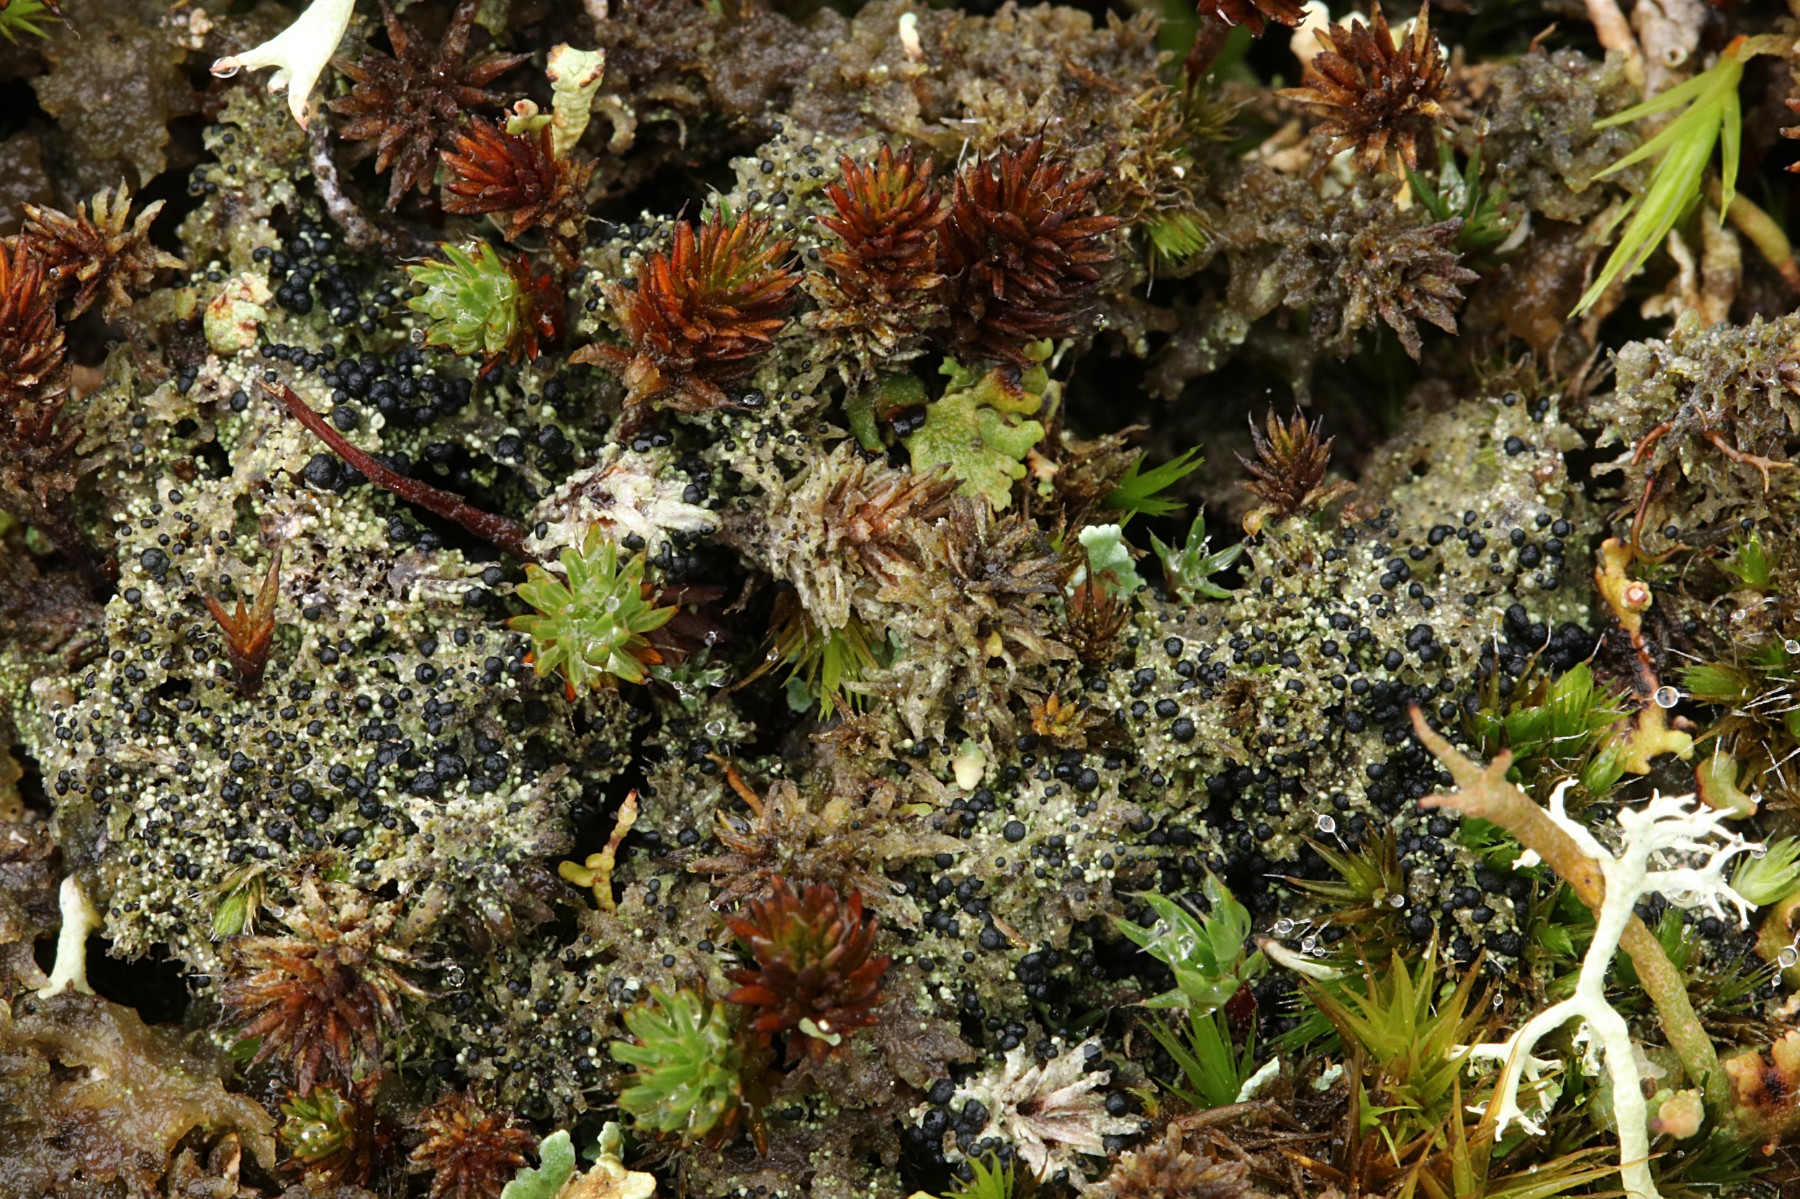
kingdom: Fungi
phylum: Ascomycota
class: Lecanoromycetes
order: Lecanorales
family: Byssolomataceae
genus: Micarea
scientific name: Micarea lignaria
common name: tørve-knaplav
